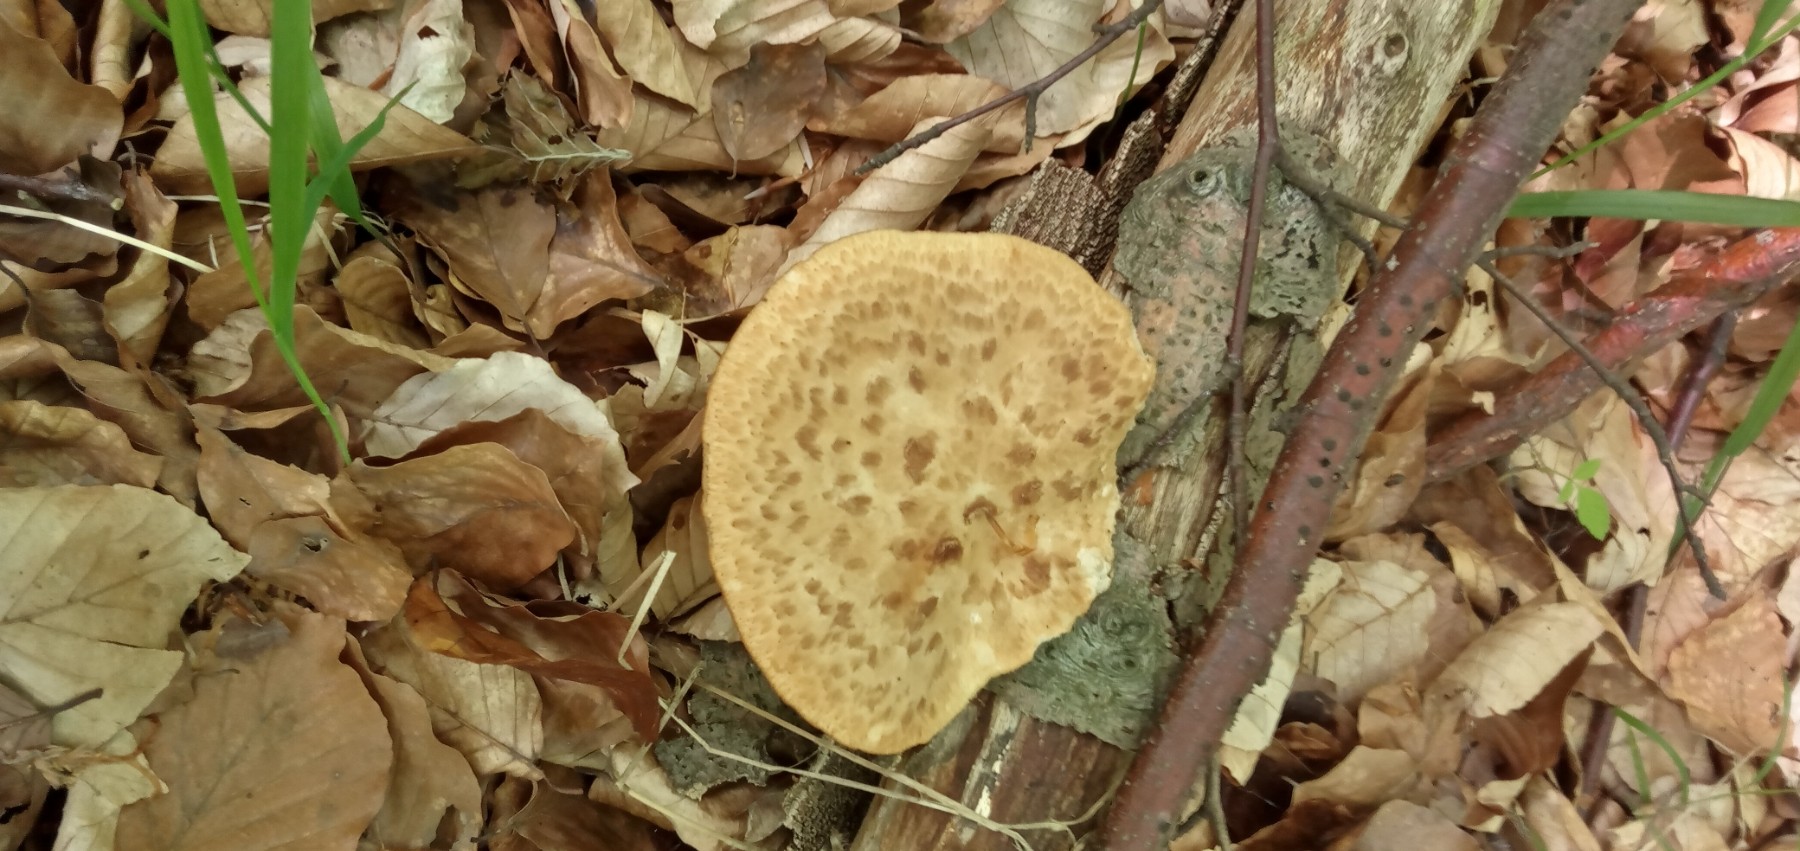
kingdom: Fungi
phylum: Basidiomycota
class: Agaricomycetes
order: Polyporales
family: Polyporaceae
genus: Polyporus
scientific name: Polyporus tuberaster
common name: knoldet stilkporesvamp
